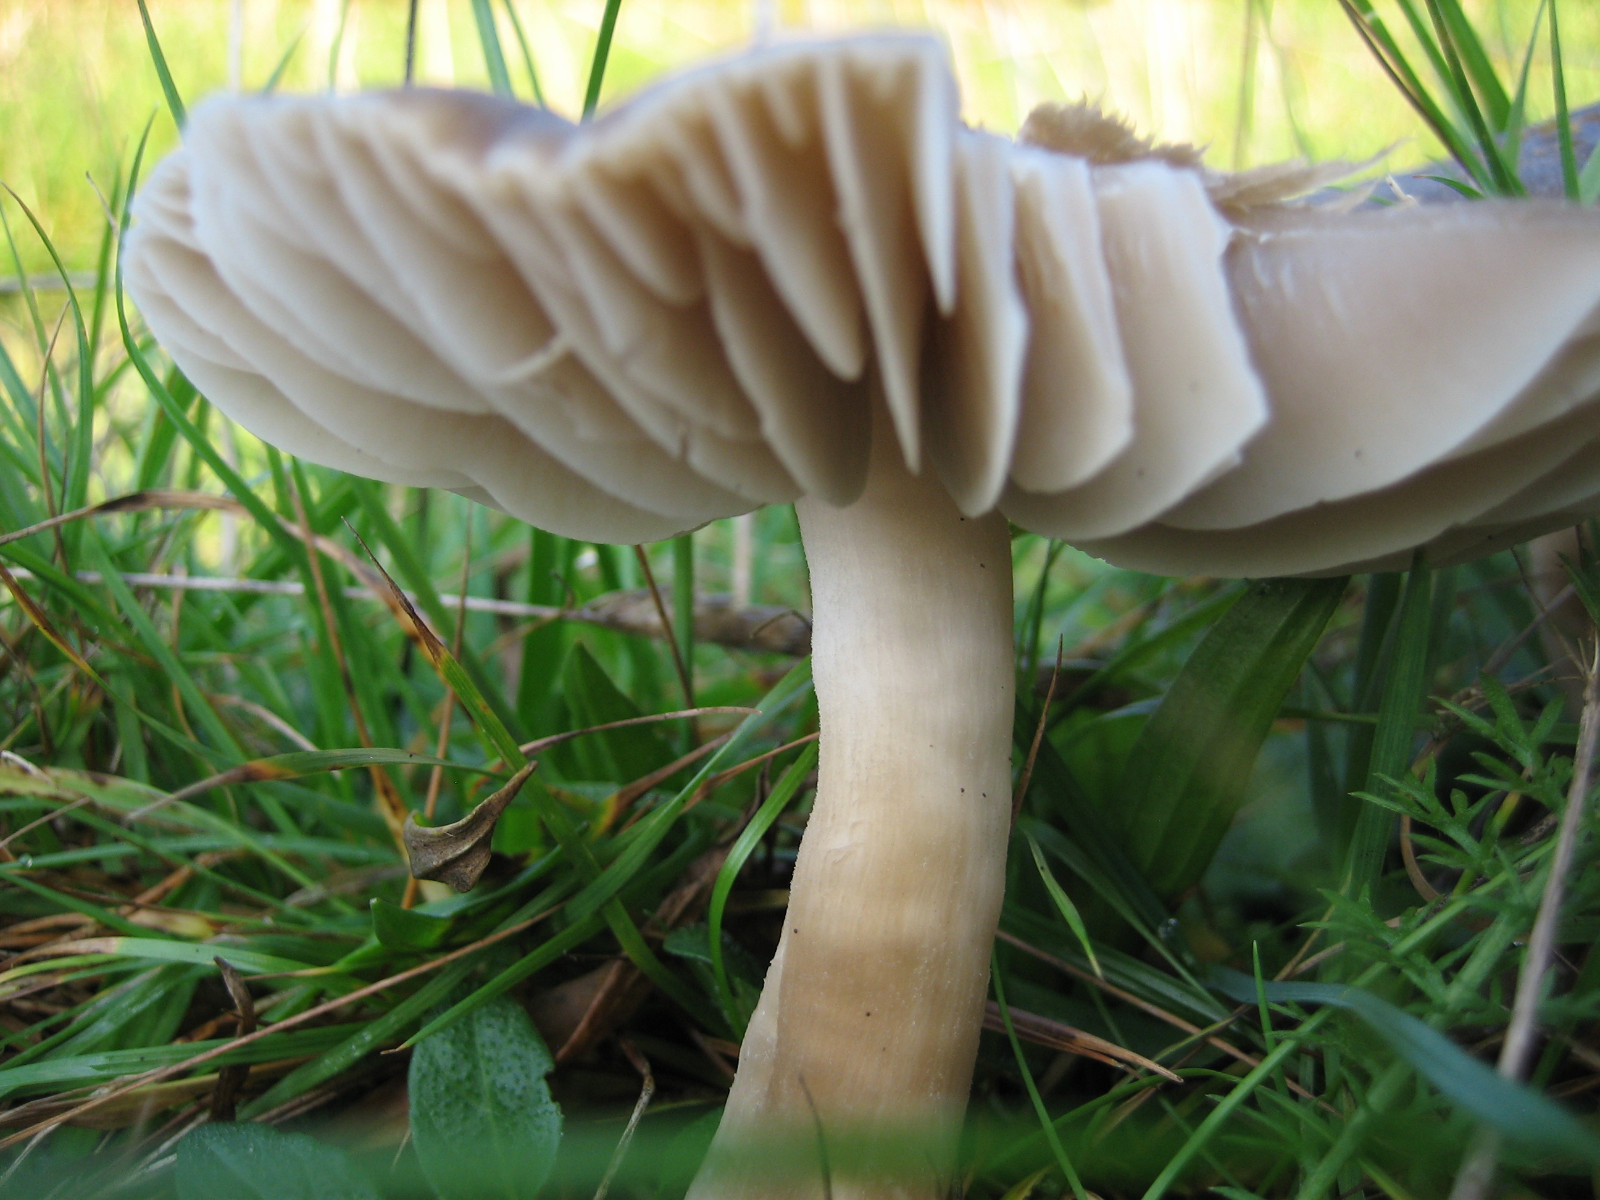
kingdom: Fungi
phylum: Basidiomycota
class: Agaricomycetes
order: Agaricales
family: Hygrophoraceae
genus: Neohygrocybe
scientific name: Neohygrocybe nitrata
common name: stinkende vokshat
